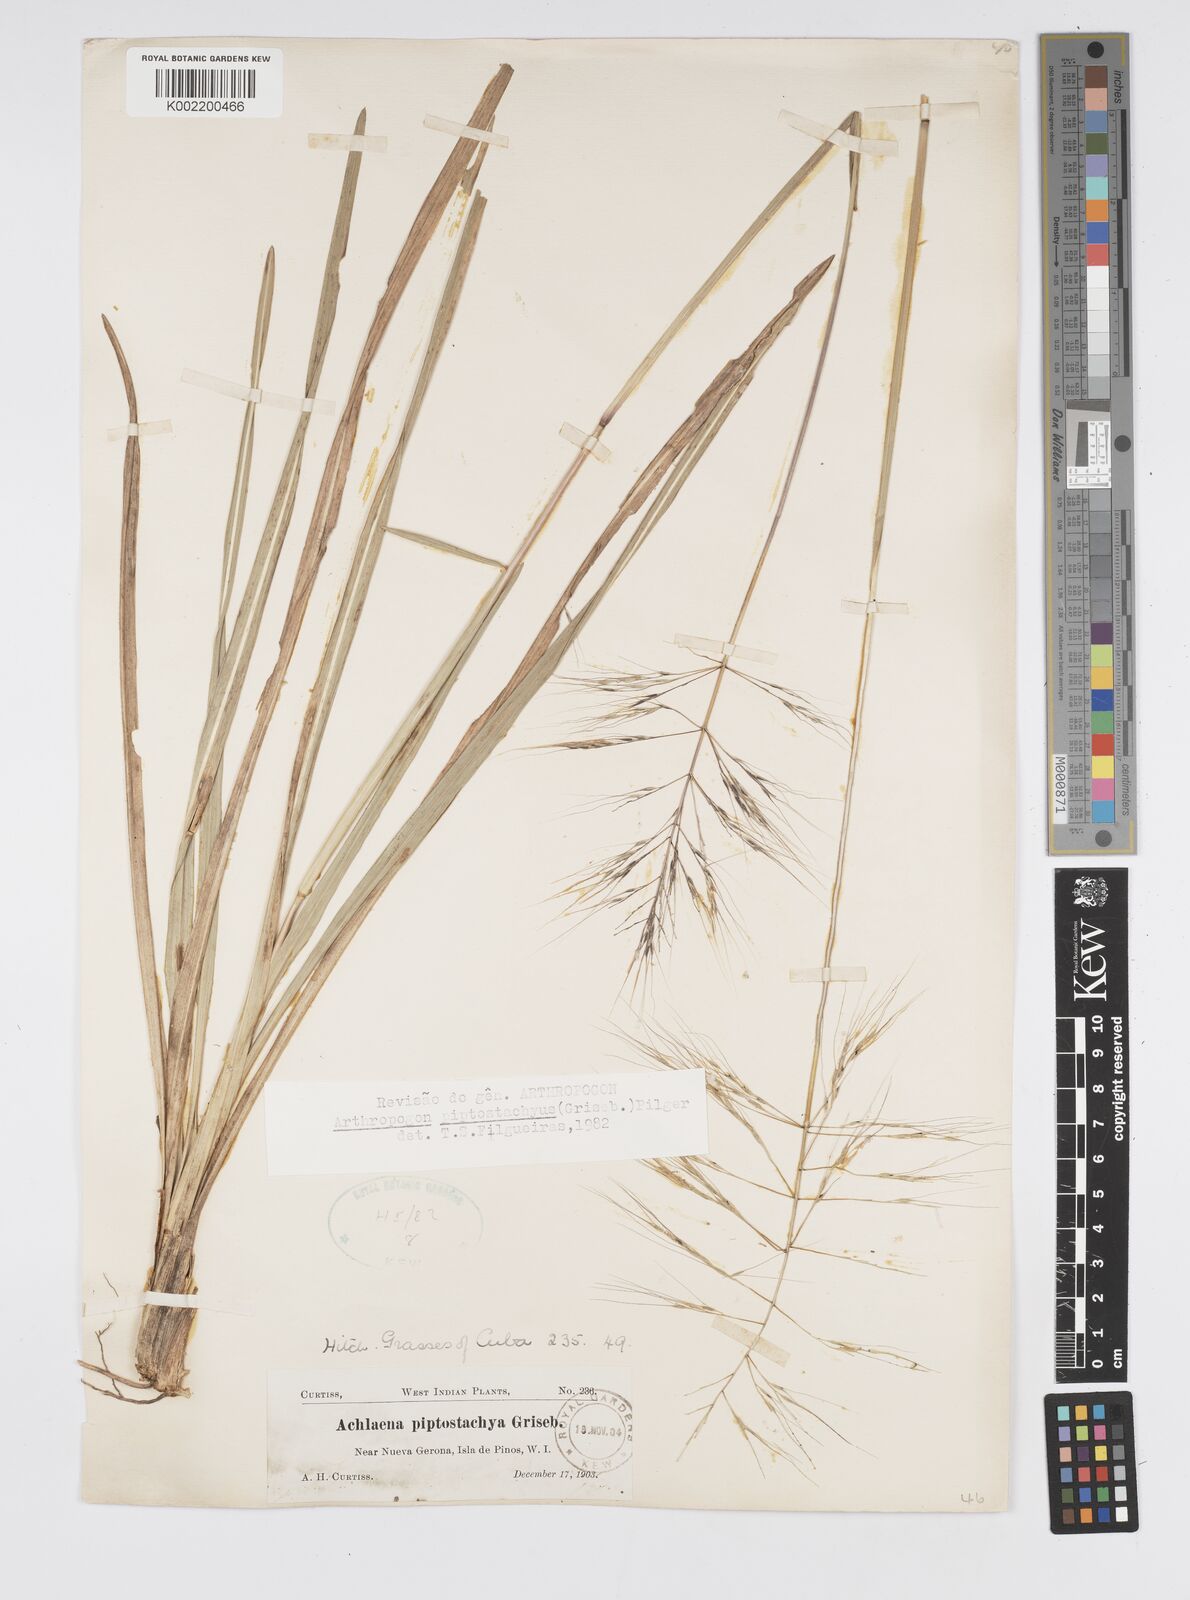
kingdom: Plantae
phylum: Tracheophyta
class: Liliopsida
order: Poales
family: Poaceae
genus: Arthropogon
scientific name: Arthropogon piptostachyus
